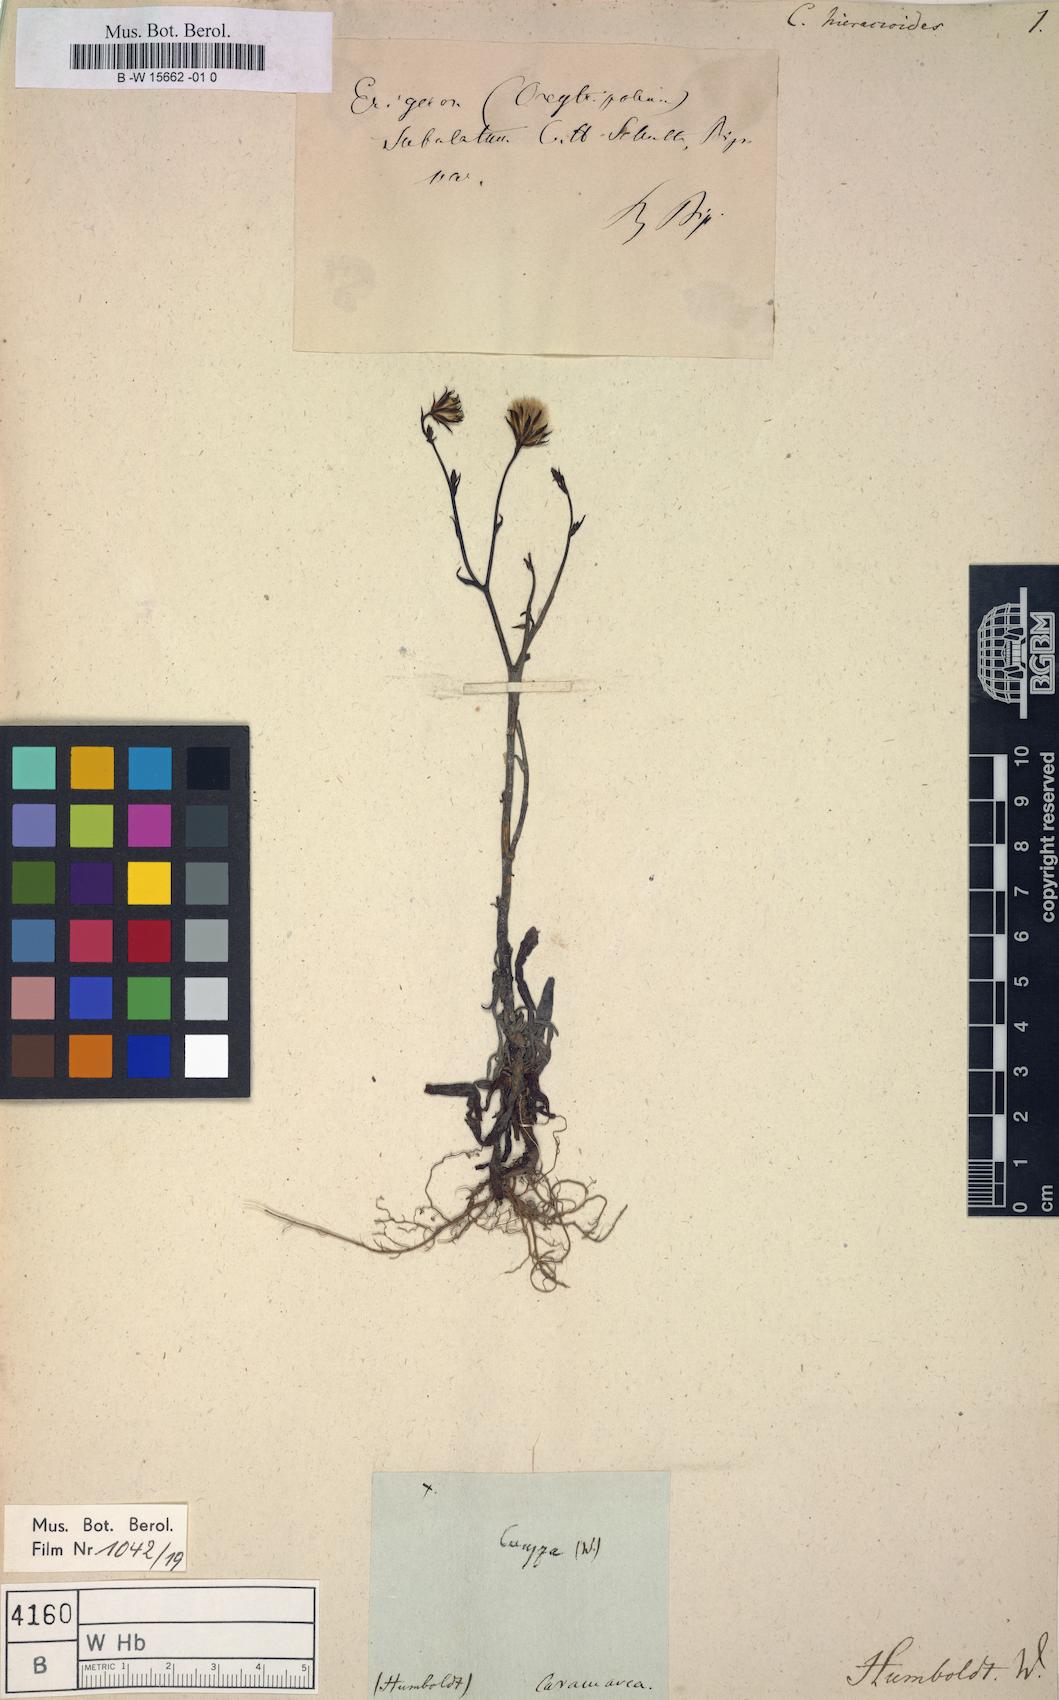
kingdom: Plantae
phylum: Tracheophyta
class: Magnoliopsida
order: Asterales
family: Asteraceae
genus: Conyza
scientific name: Conyza
